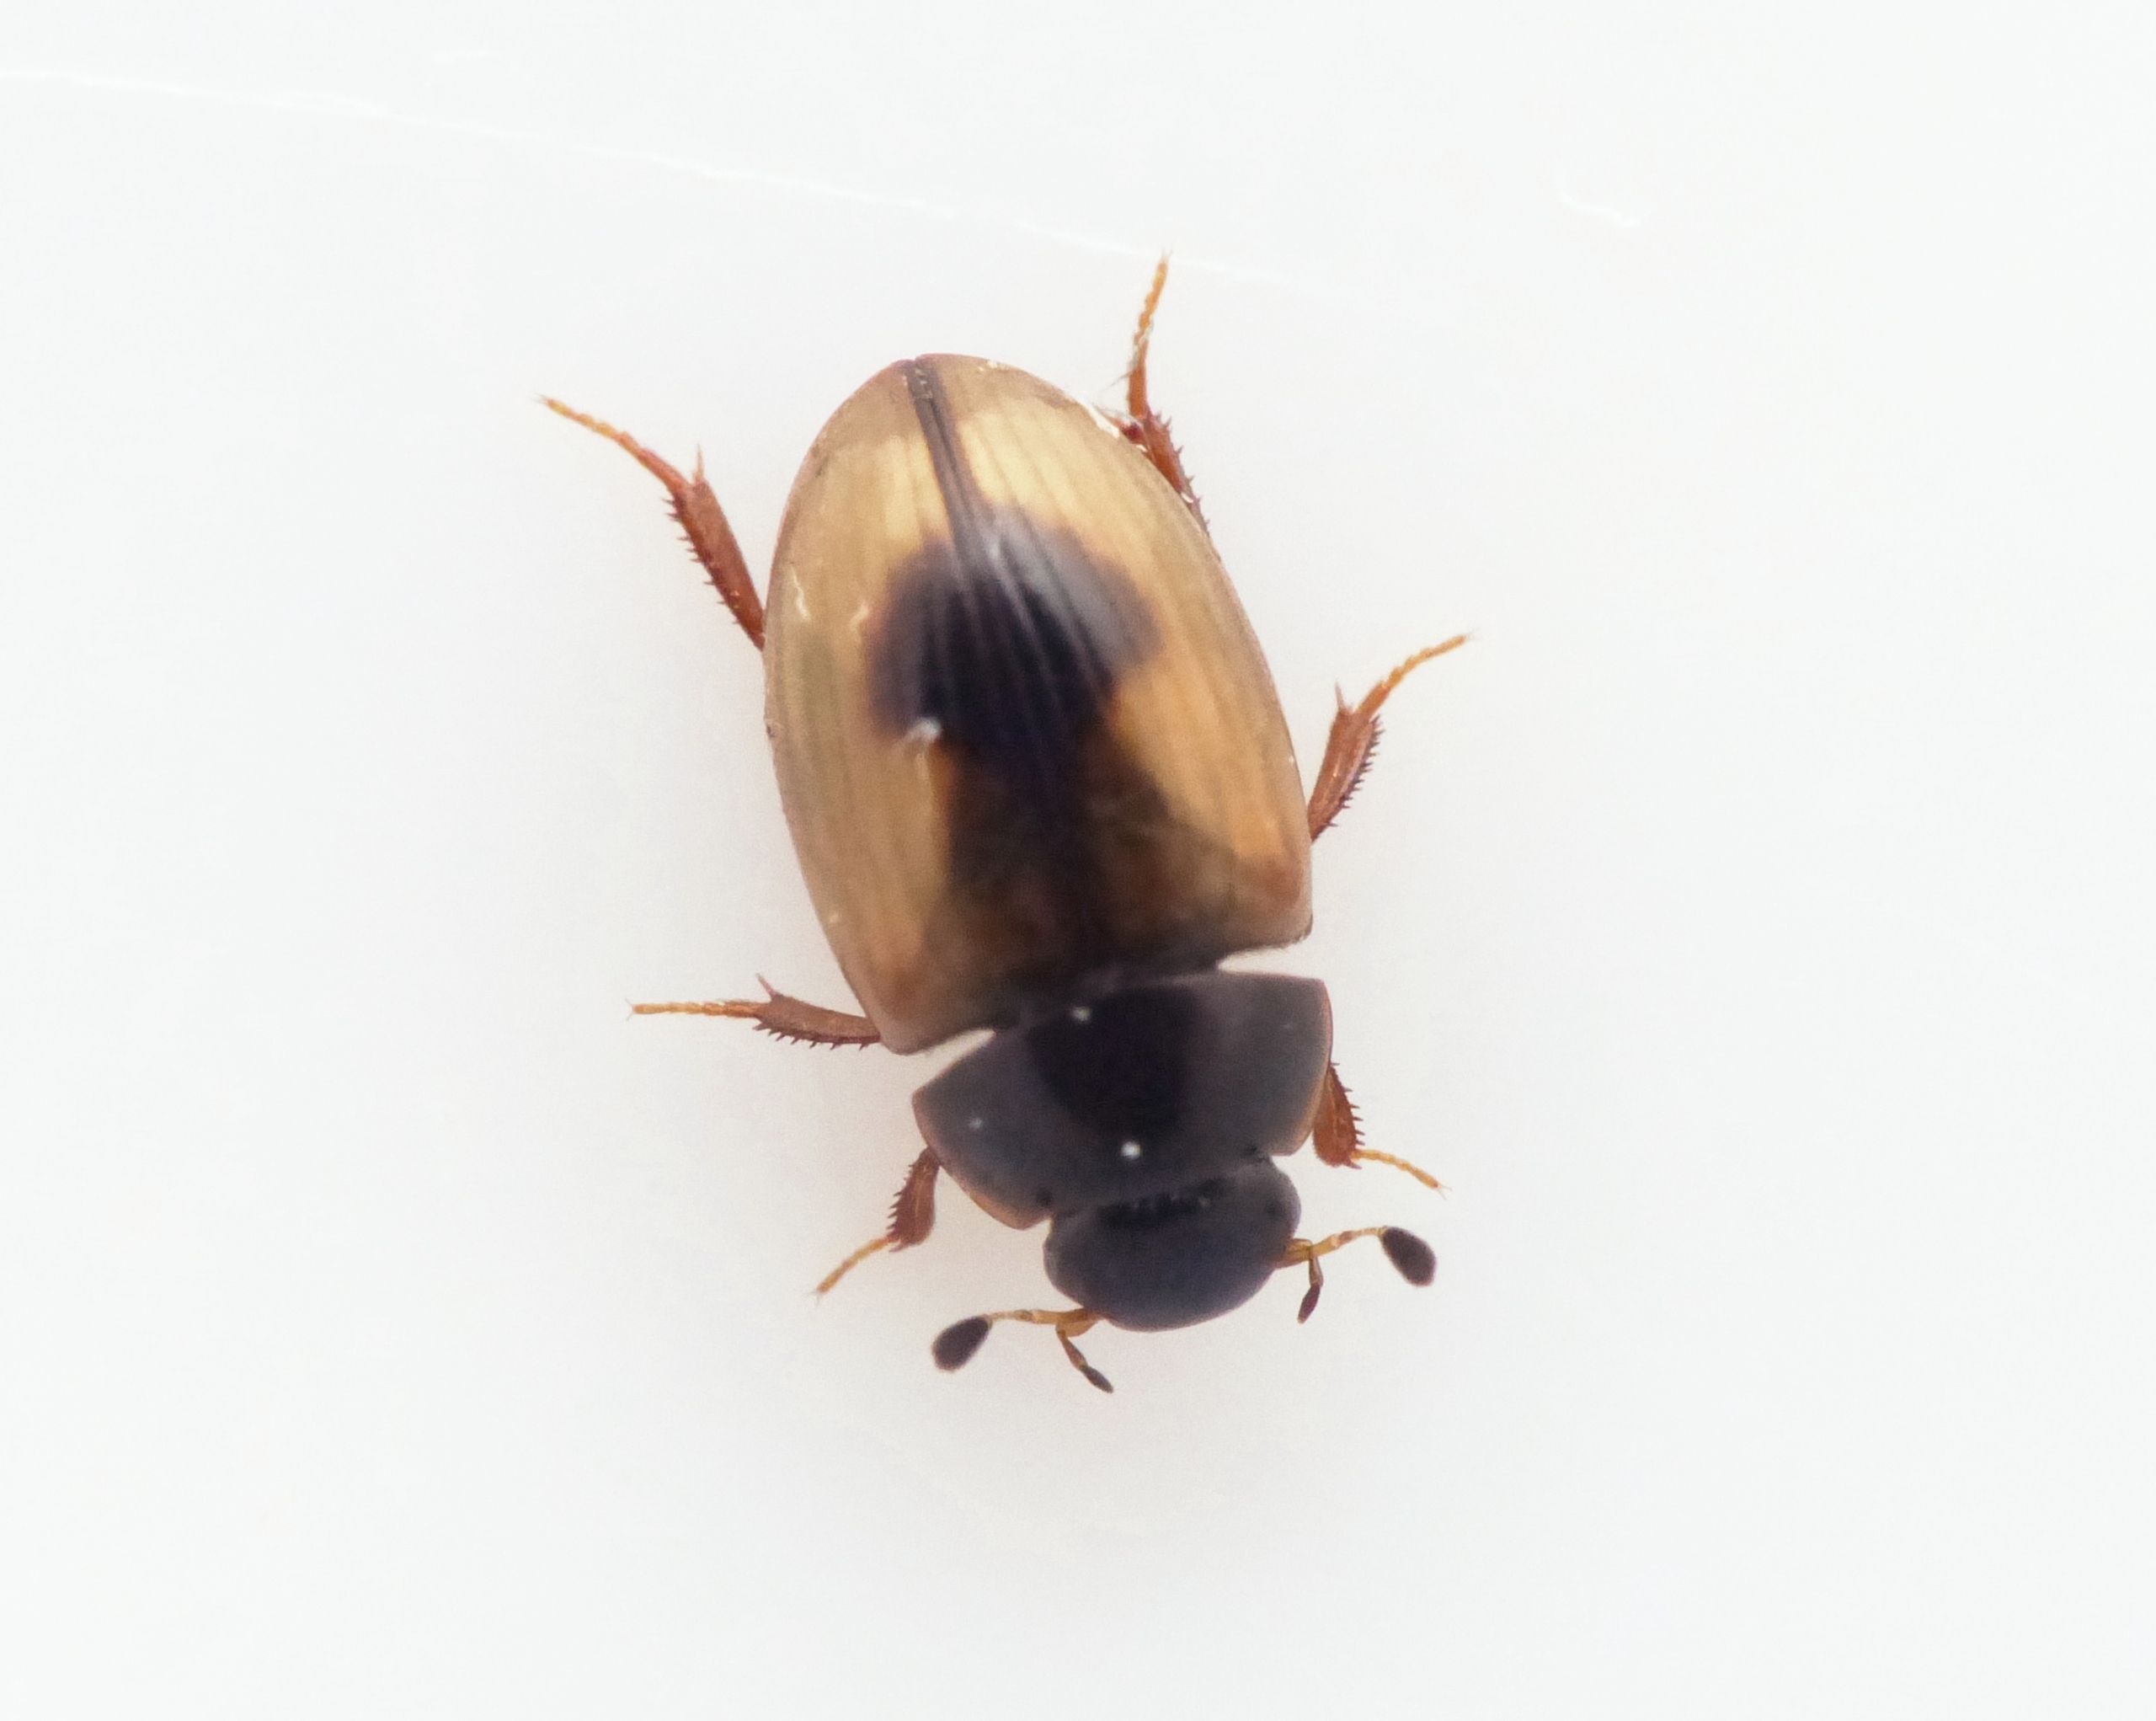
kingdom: Animalia
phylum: Arthropoda
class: Insecta
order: Coleoptera
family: Hydrophilidae
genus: Cercyon
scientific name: Cercyon unipunctatus
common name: Enplettet landkær
